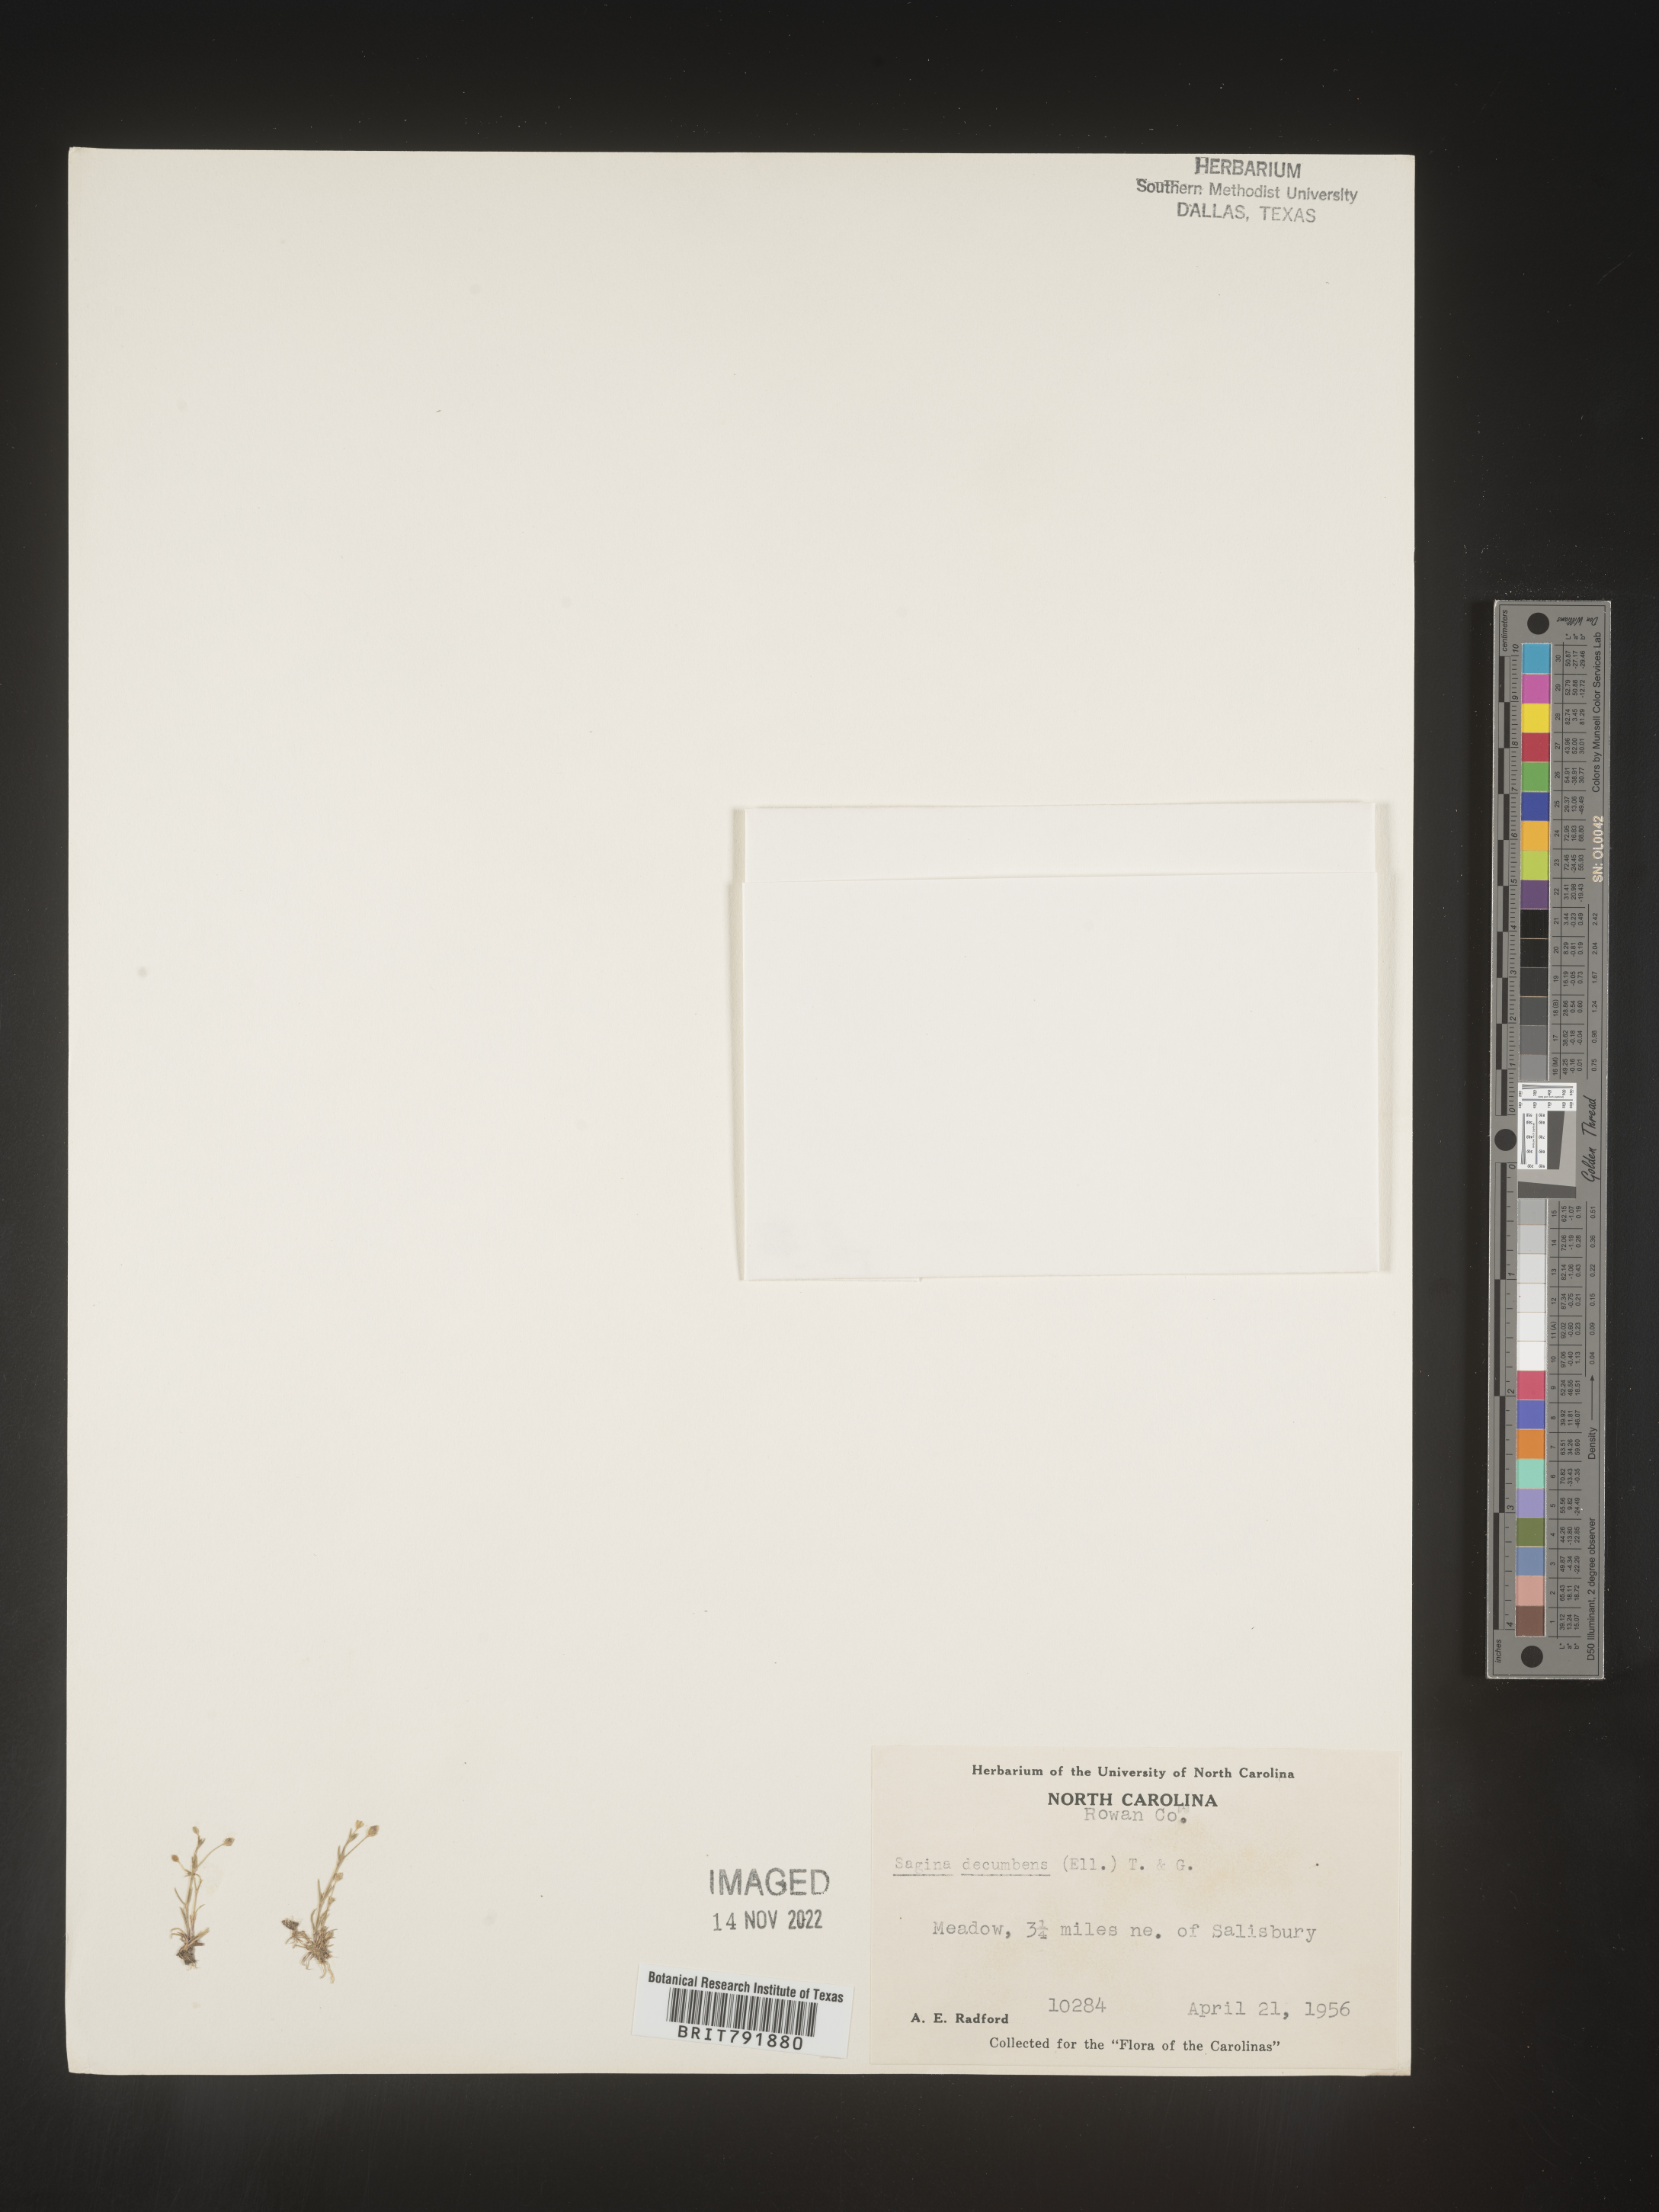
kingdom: Plantae
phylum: Tracheophyta
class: Magnoliopsida
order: Caryophyllales
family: Caryophyllaceae
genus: Sagina
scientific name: Sagina decumbens
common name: Decumbent pearlwort
